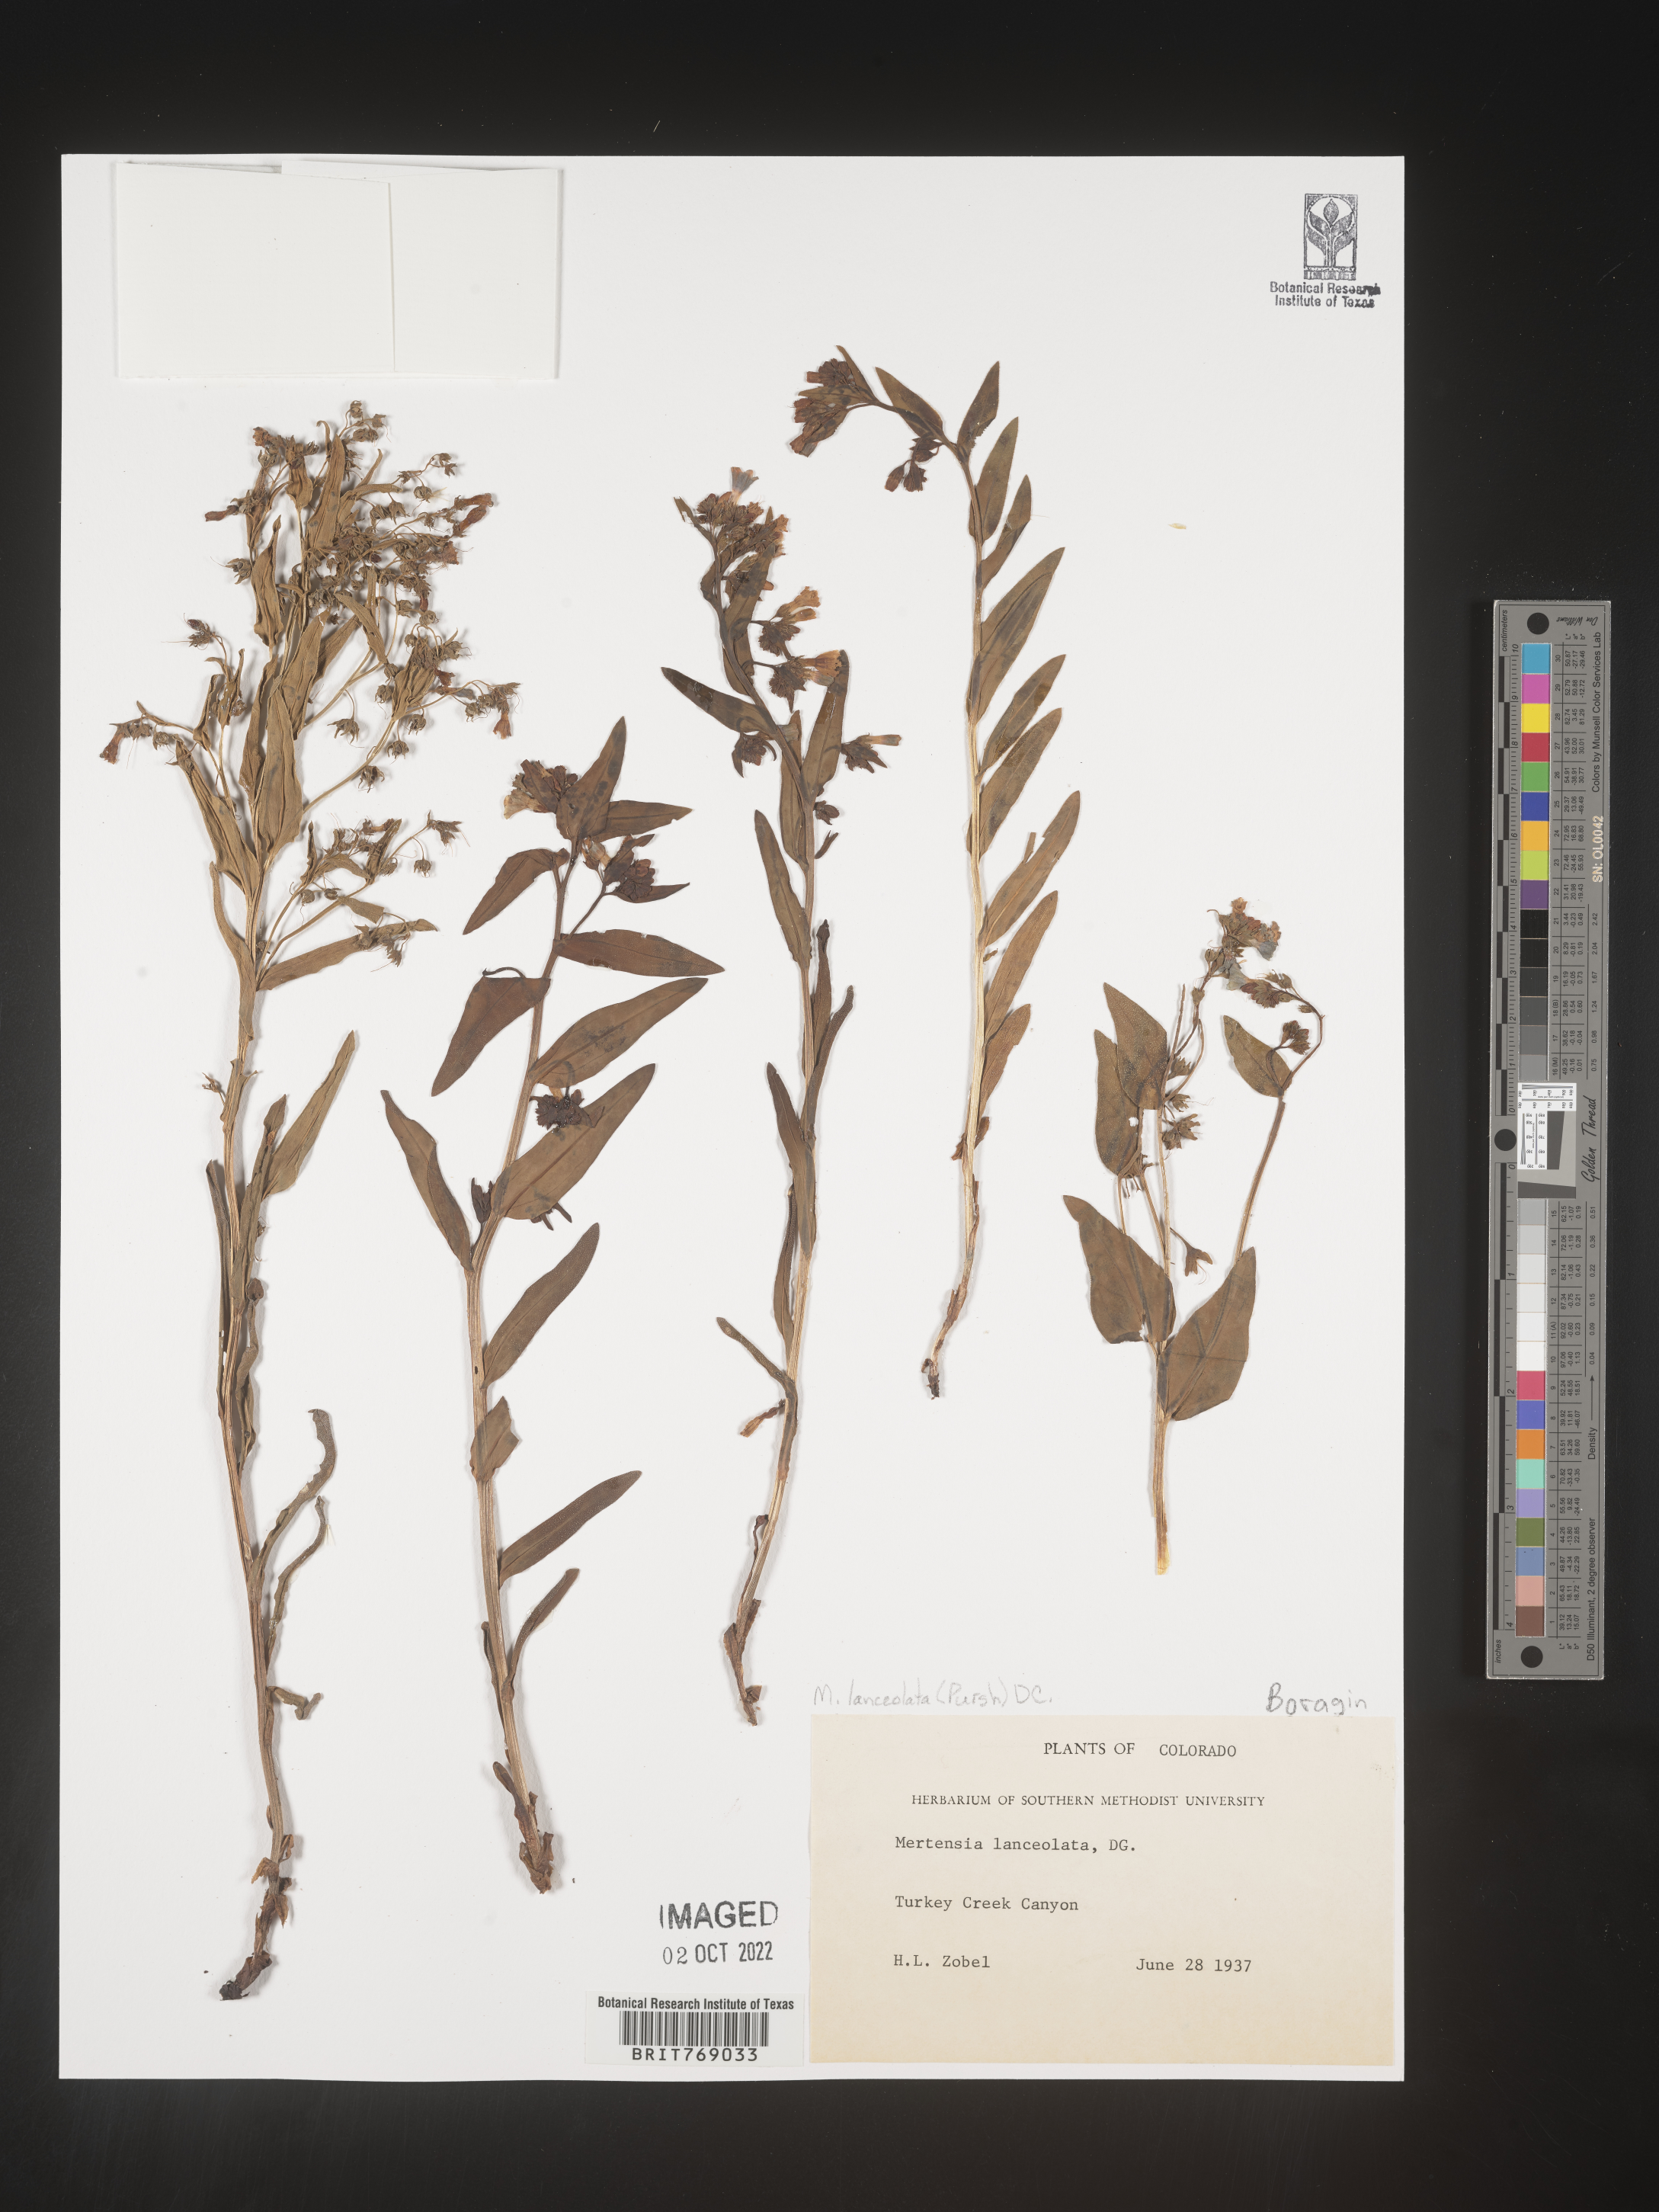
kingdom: Plantae
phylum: Tracheophyta
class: Magnoliopsida
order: Boraginales
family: Boraginaceae
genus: Mertensia
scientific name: Mertensia
